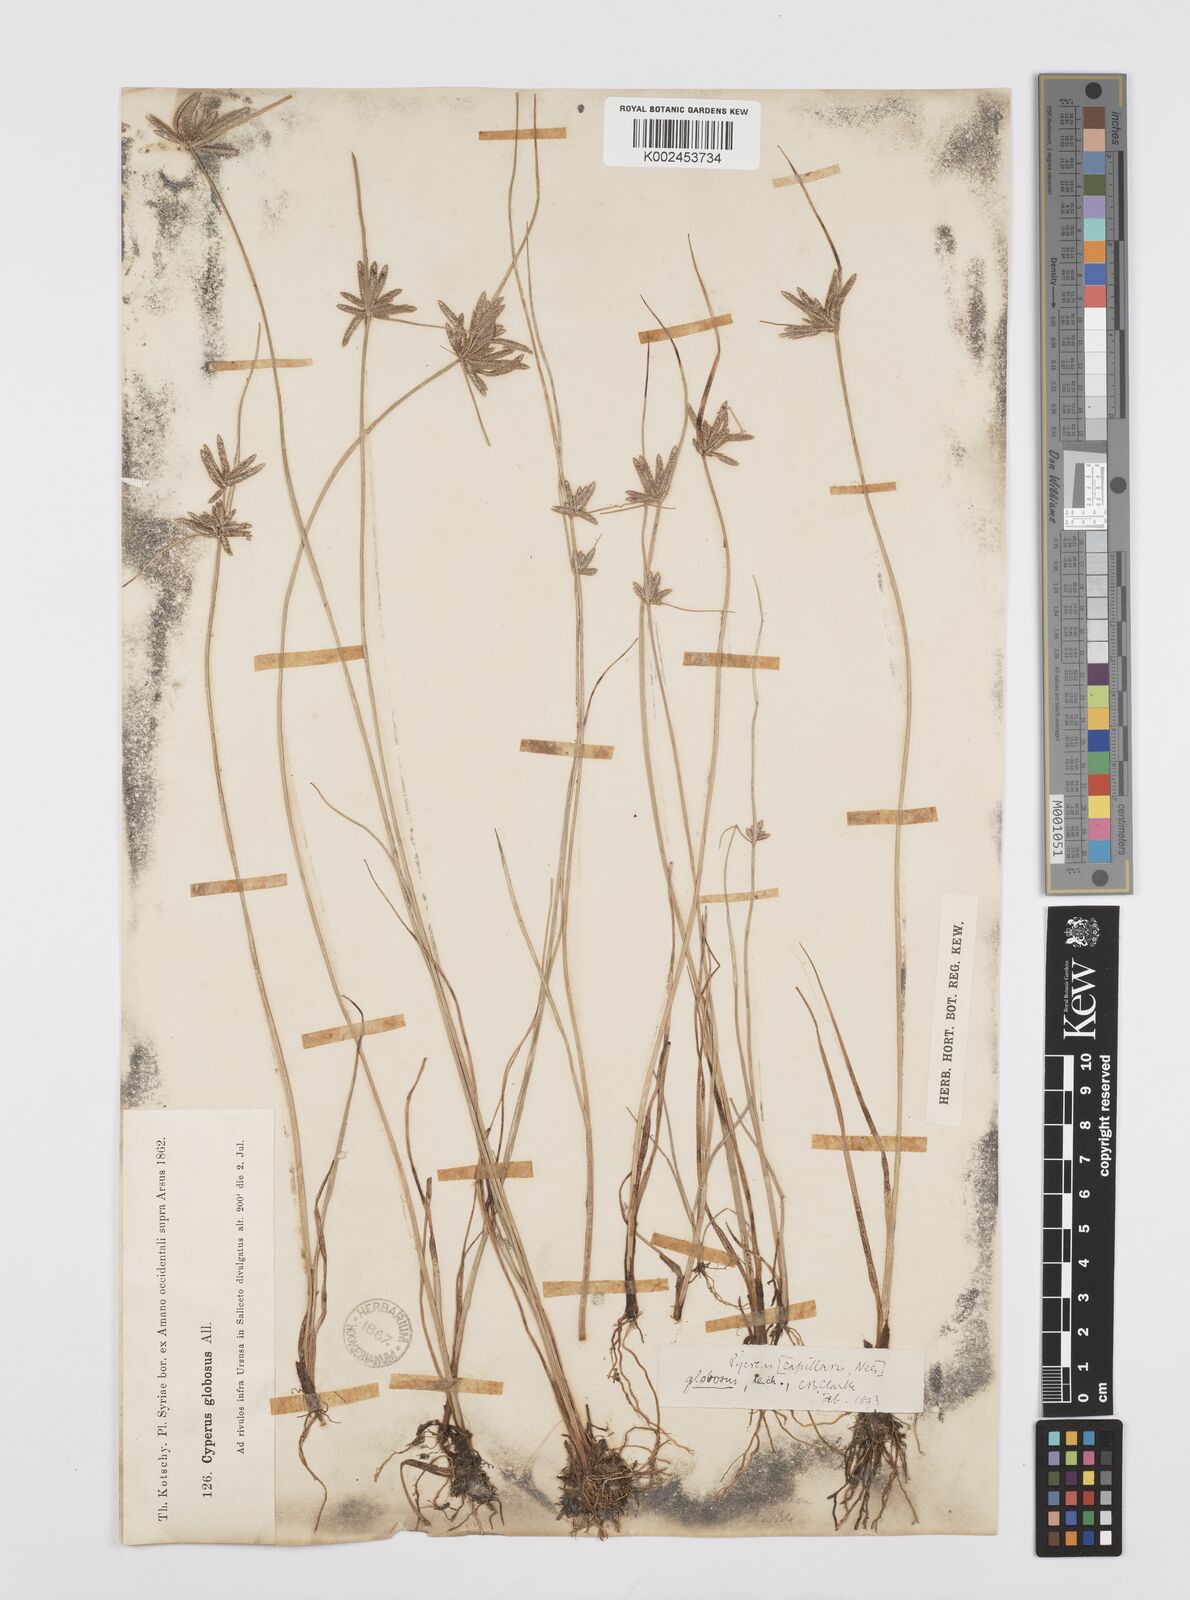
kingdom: Plantae
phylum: Tracheophyta
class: Liliopsida
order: Poales
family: Cyperaceae
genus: Cyperus
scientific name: Cyperus flavidus
